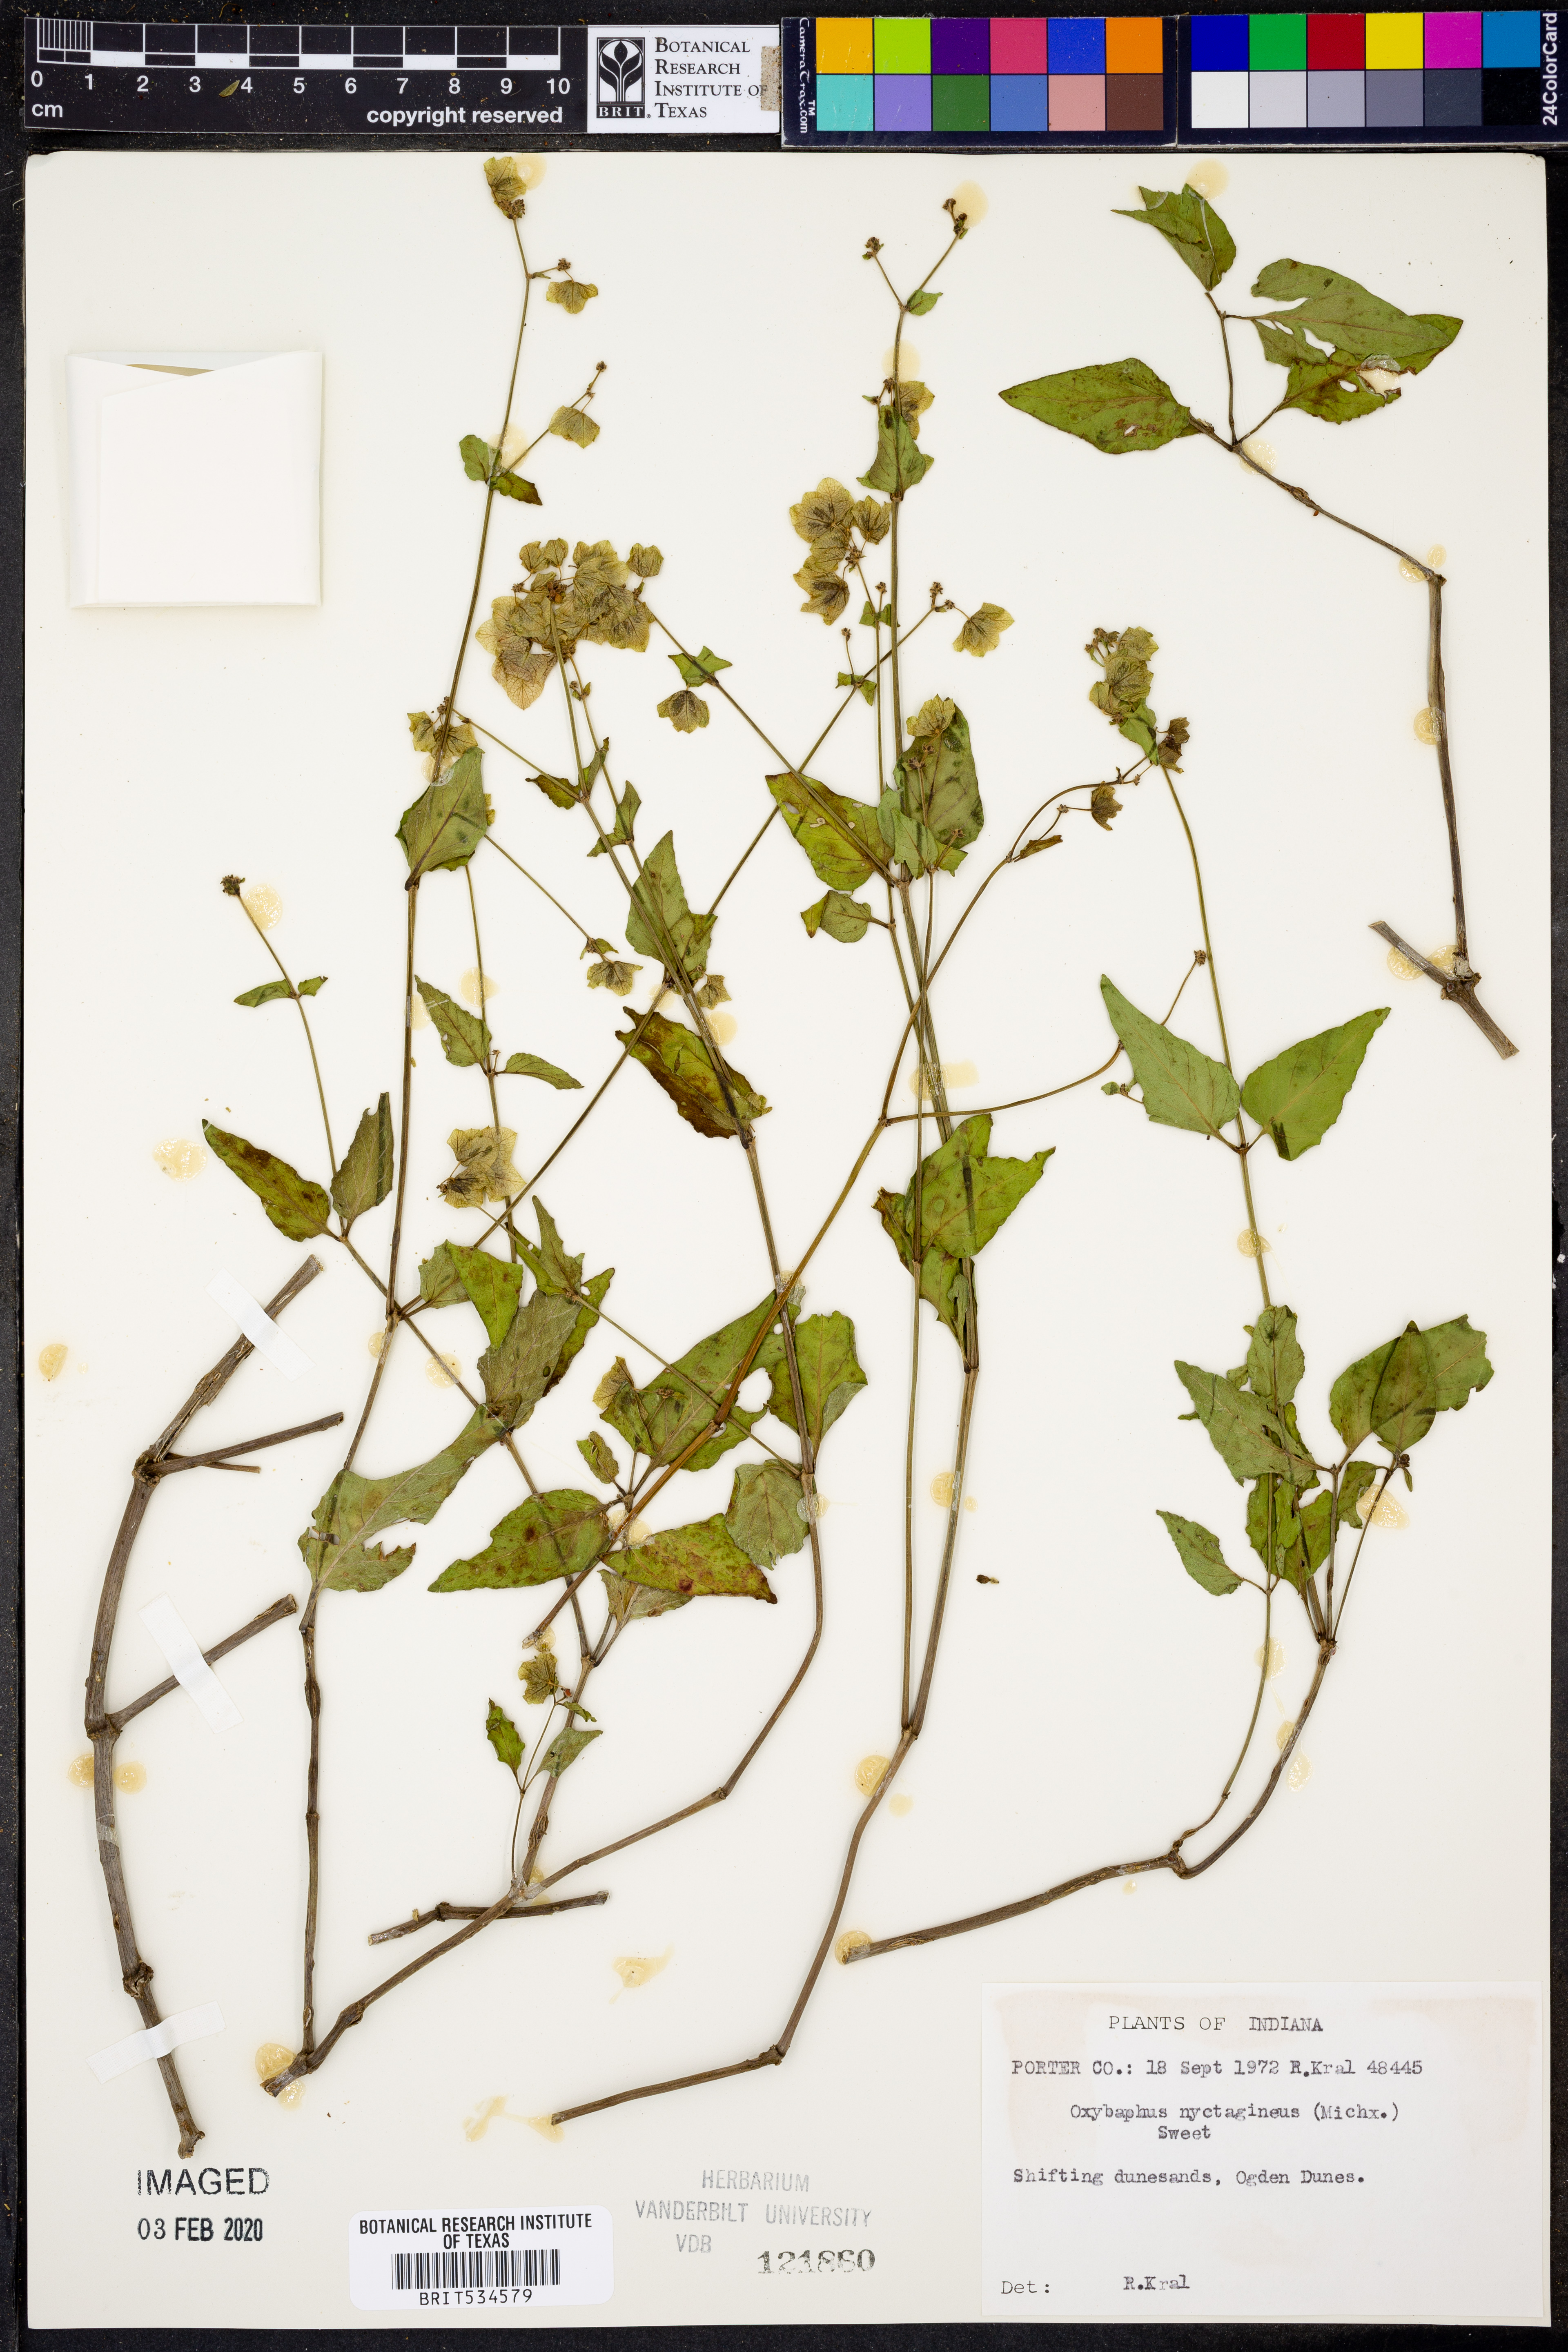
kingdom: Plantae
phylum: Tracheophyta
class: Magnoliopsida
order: Caryophyllales
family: Nyctaginaceae
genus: Mirabilis
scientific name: Mirabilis nyctaginea
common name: Umbrella wort
